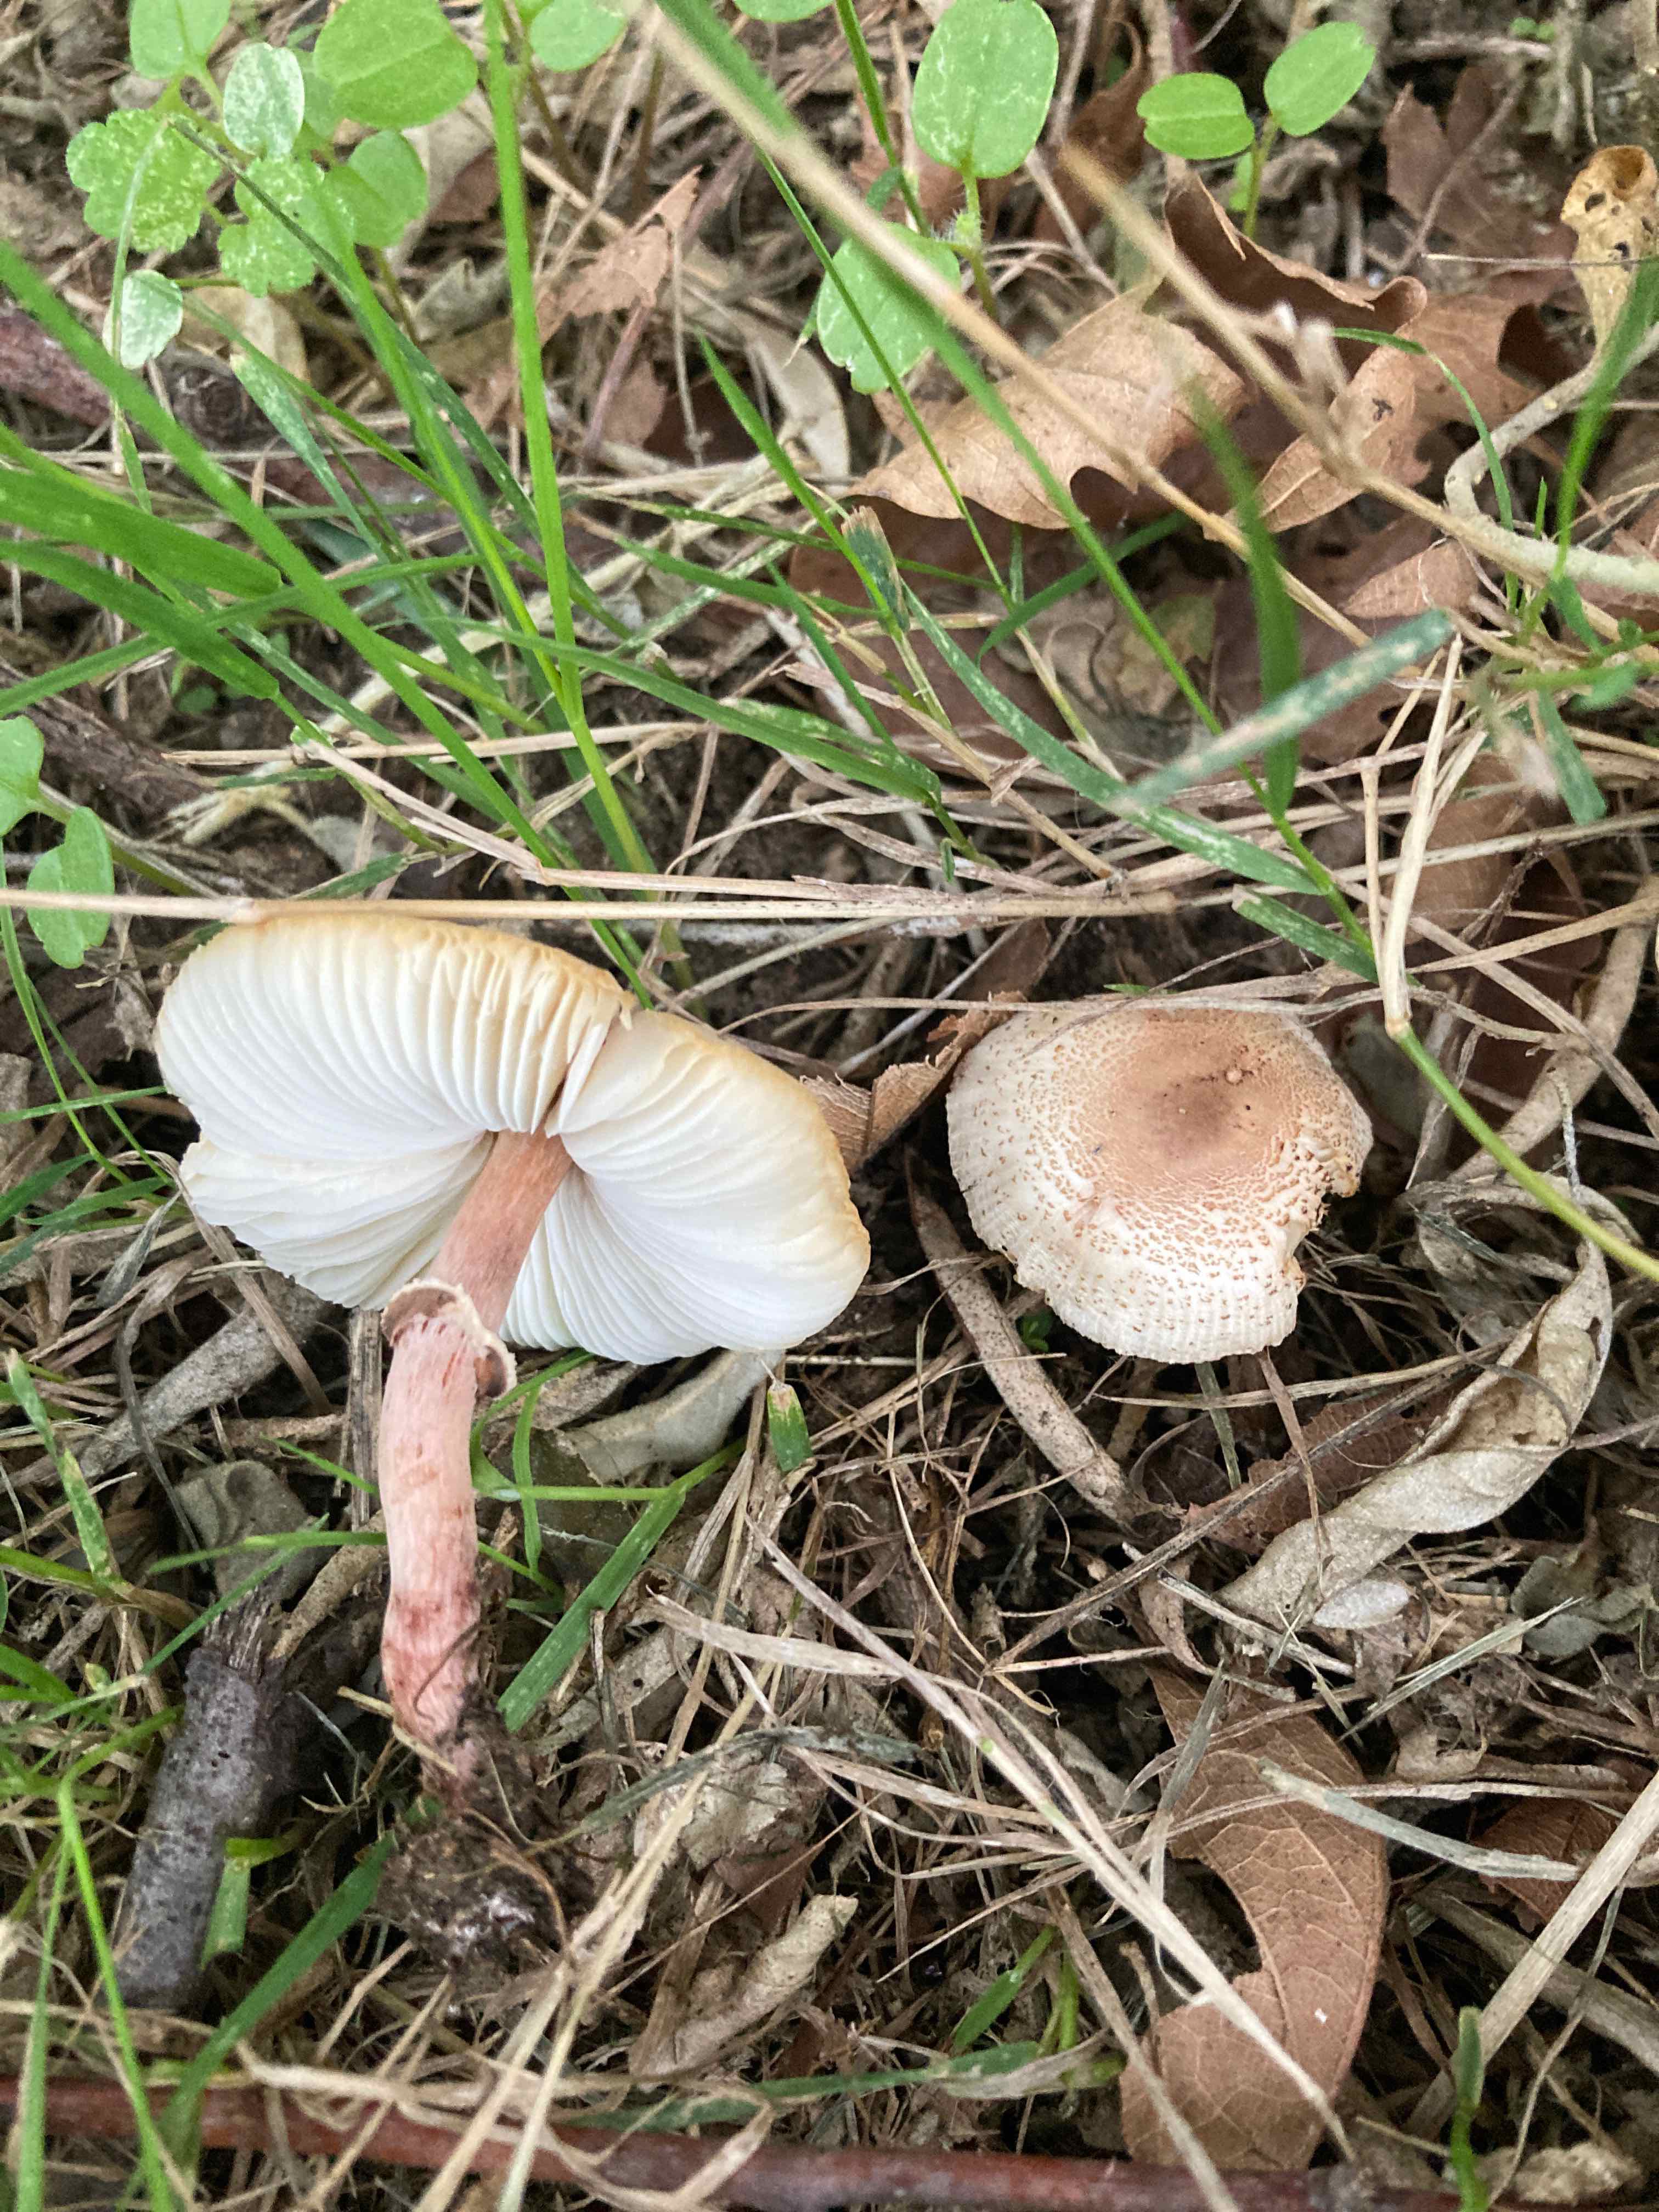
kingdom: Fungi
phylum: Basidiomycota
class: Agaricomycetes
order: Agaricales
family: Agaricaceae
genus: Lepiota
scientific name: Lepiota lilacea
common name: lillabrun parasolhat
